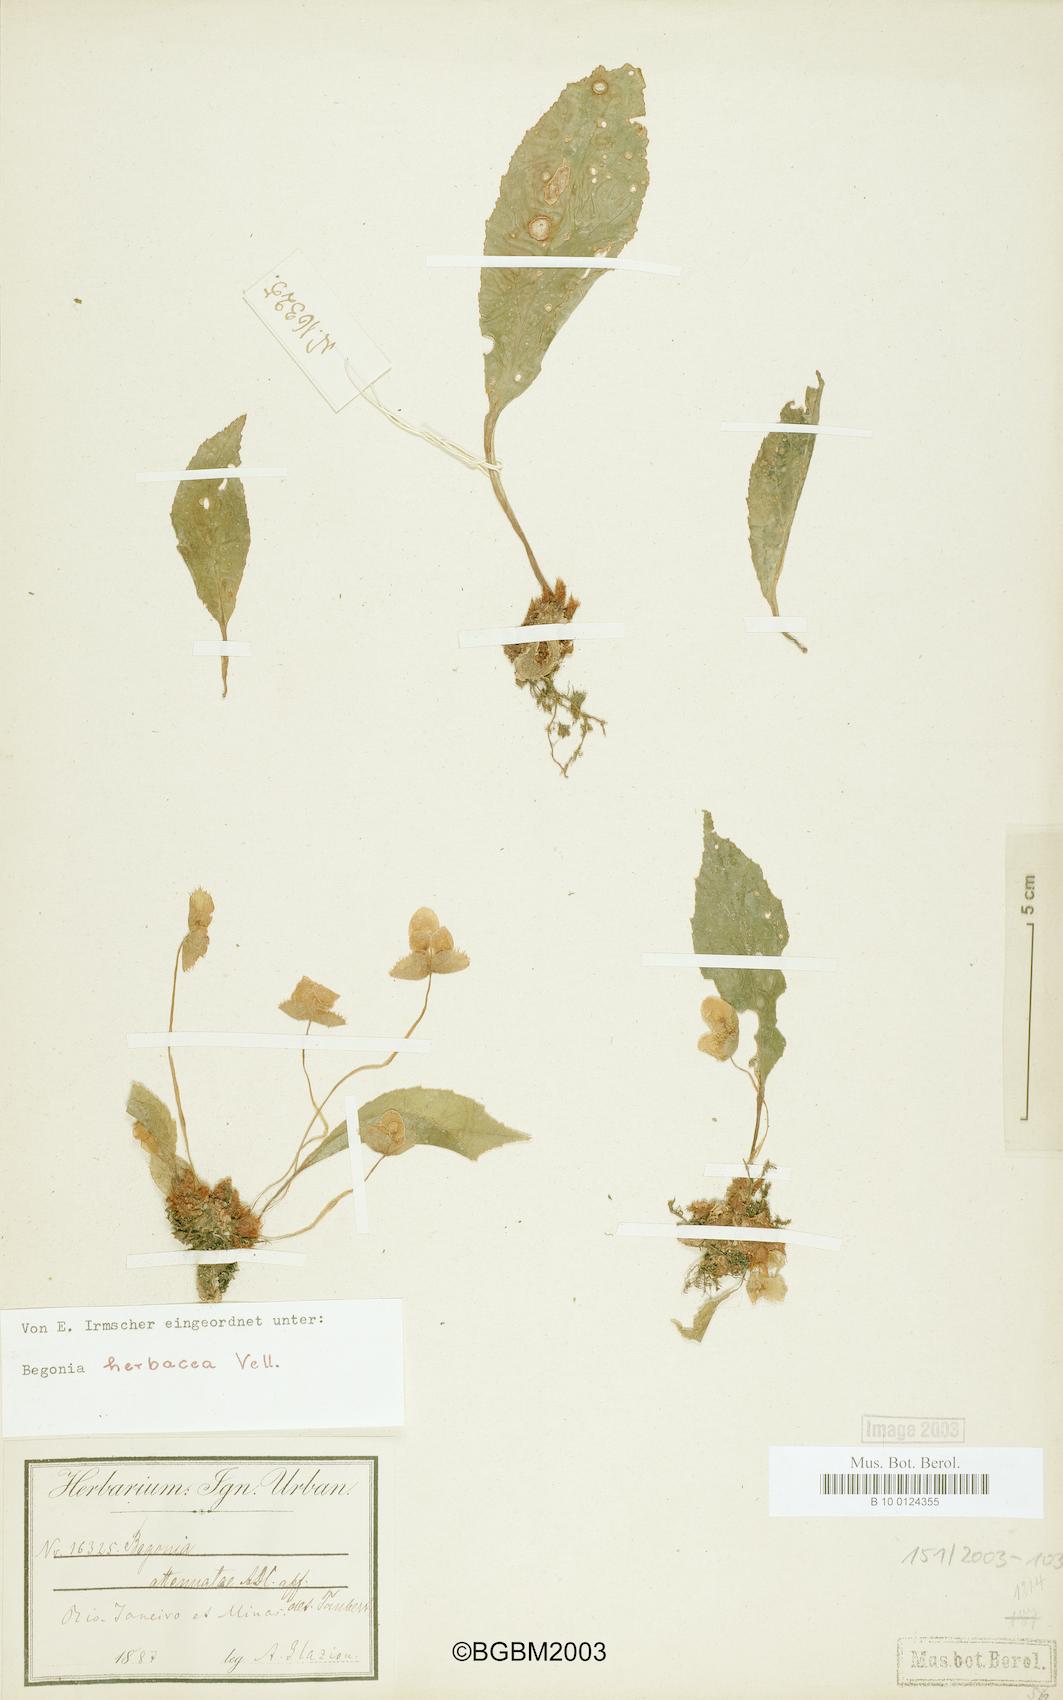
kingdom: Plantae
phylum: Tracheophyta
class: Magnoliopsida
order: Cucurbitales
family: Begoniaceae
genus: Begonia
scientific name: Begonia herbacea
